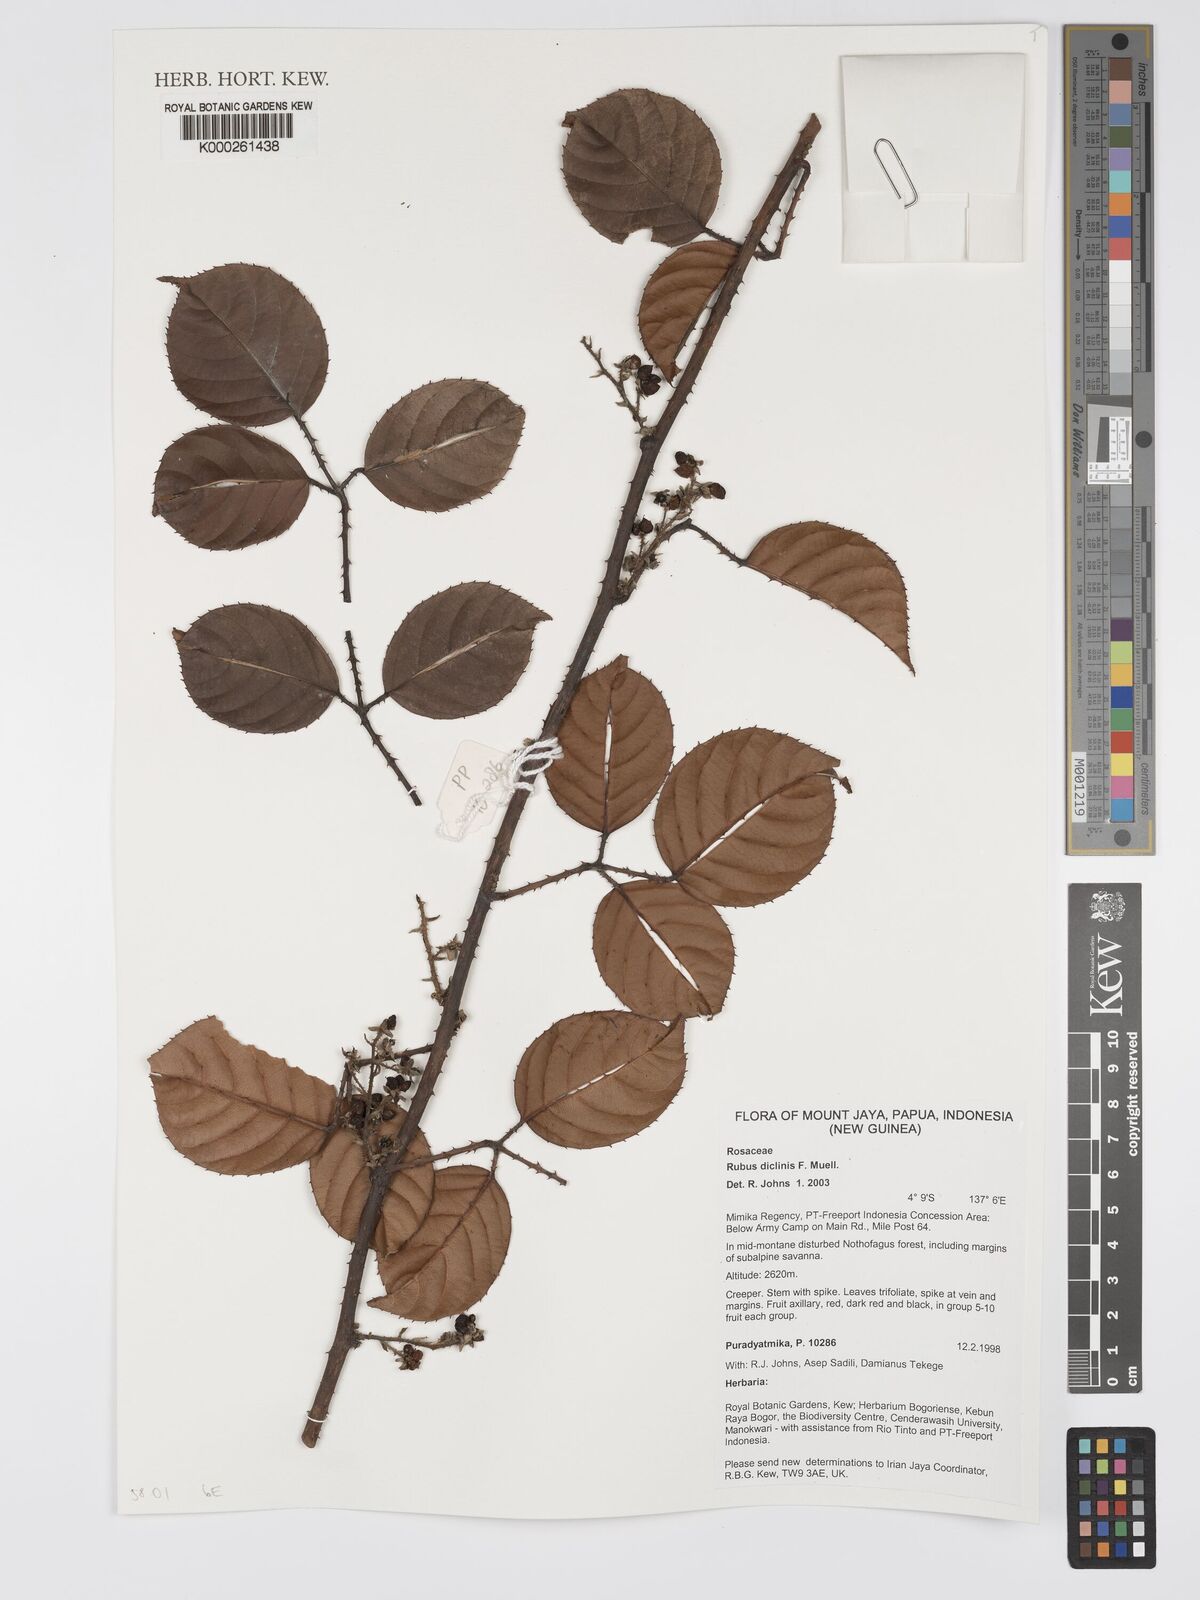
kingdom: Plantae
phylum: Tracheophyta
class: Magnoliopsida
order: Rosales
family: Rosaceae
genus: Rubus
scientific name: Rubus diclinis
